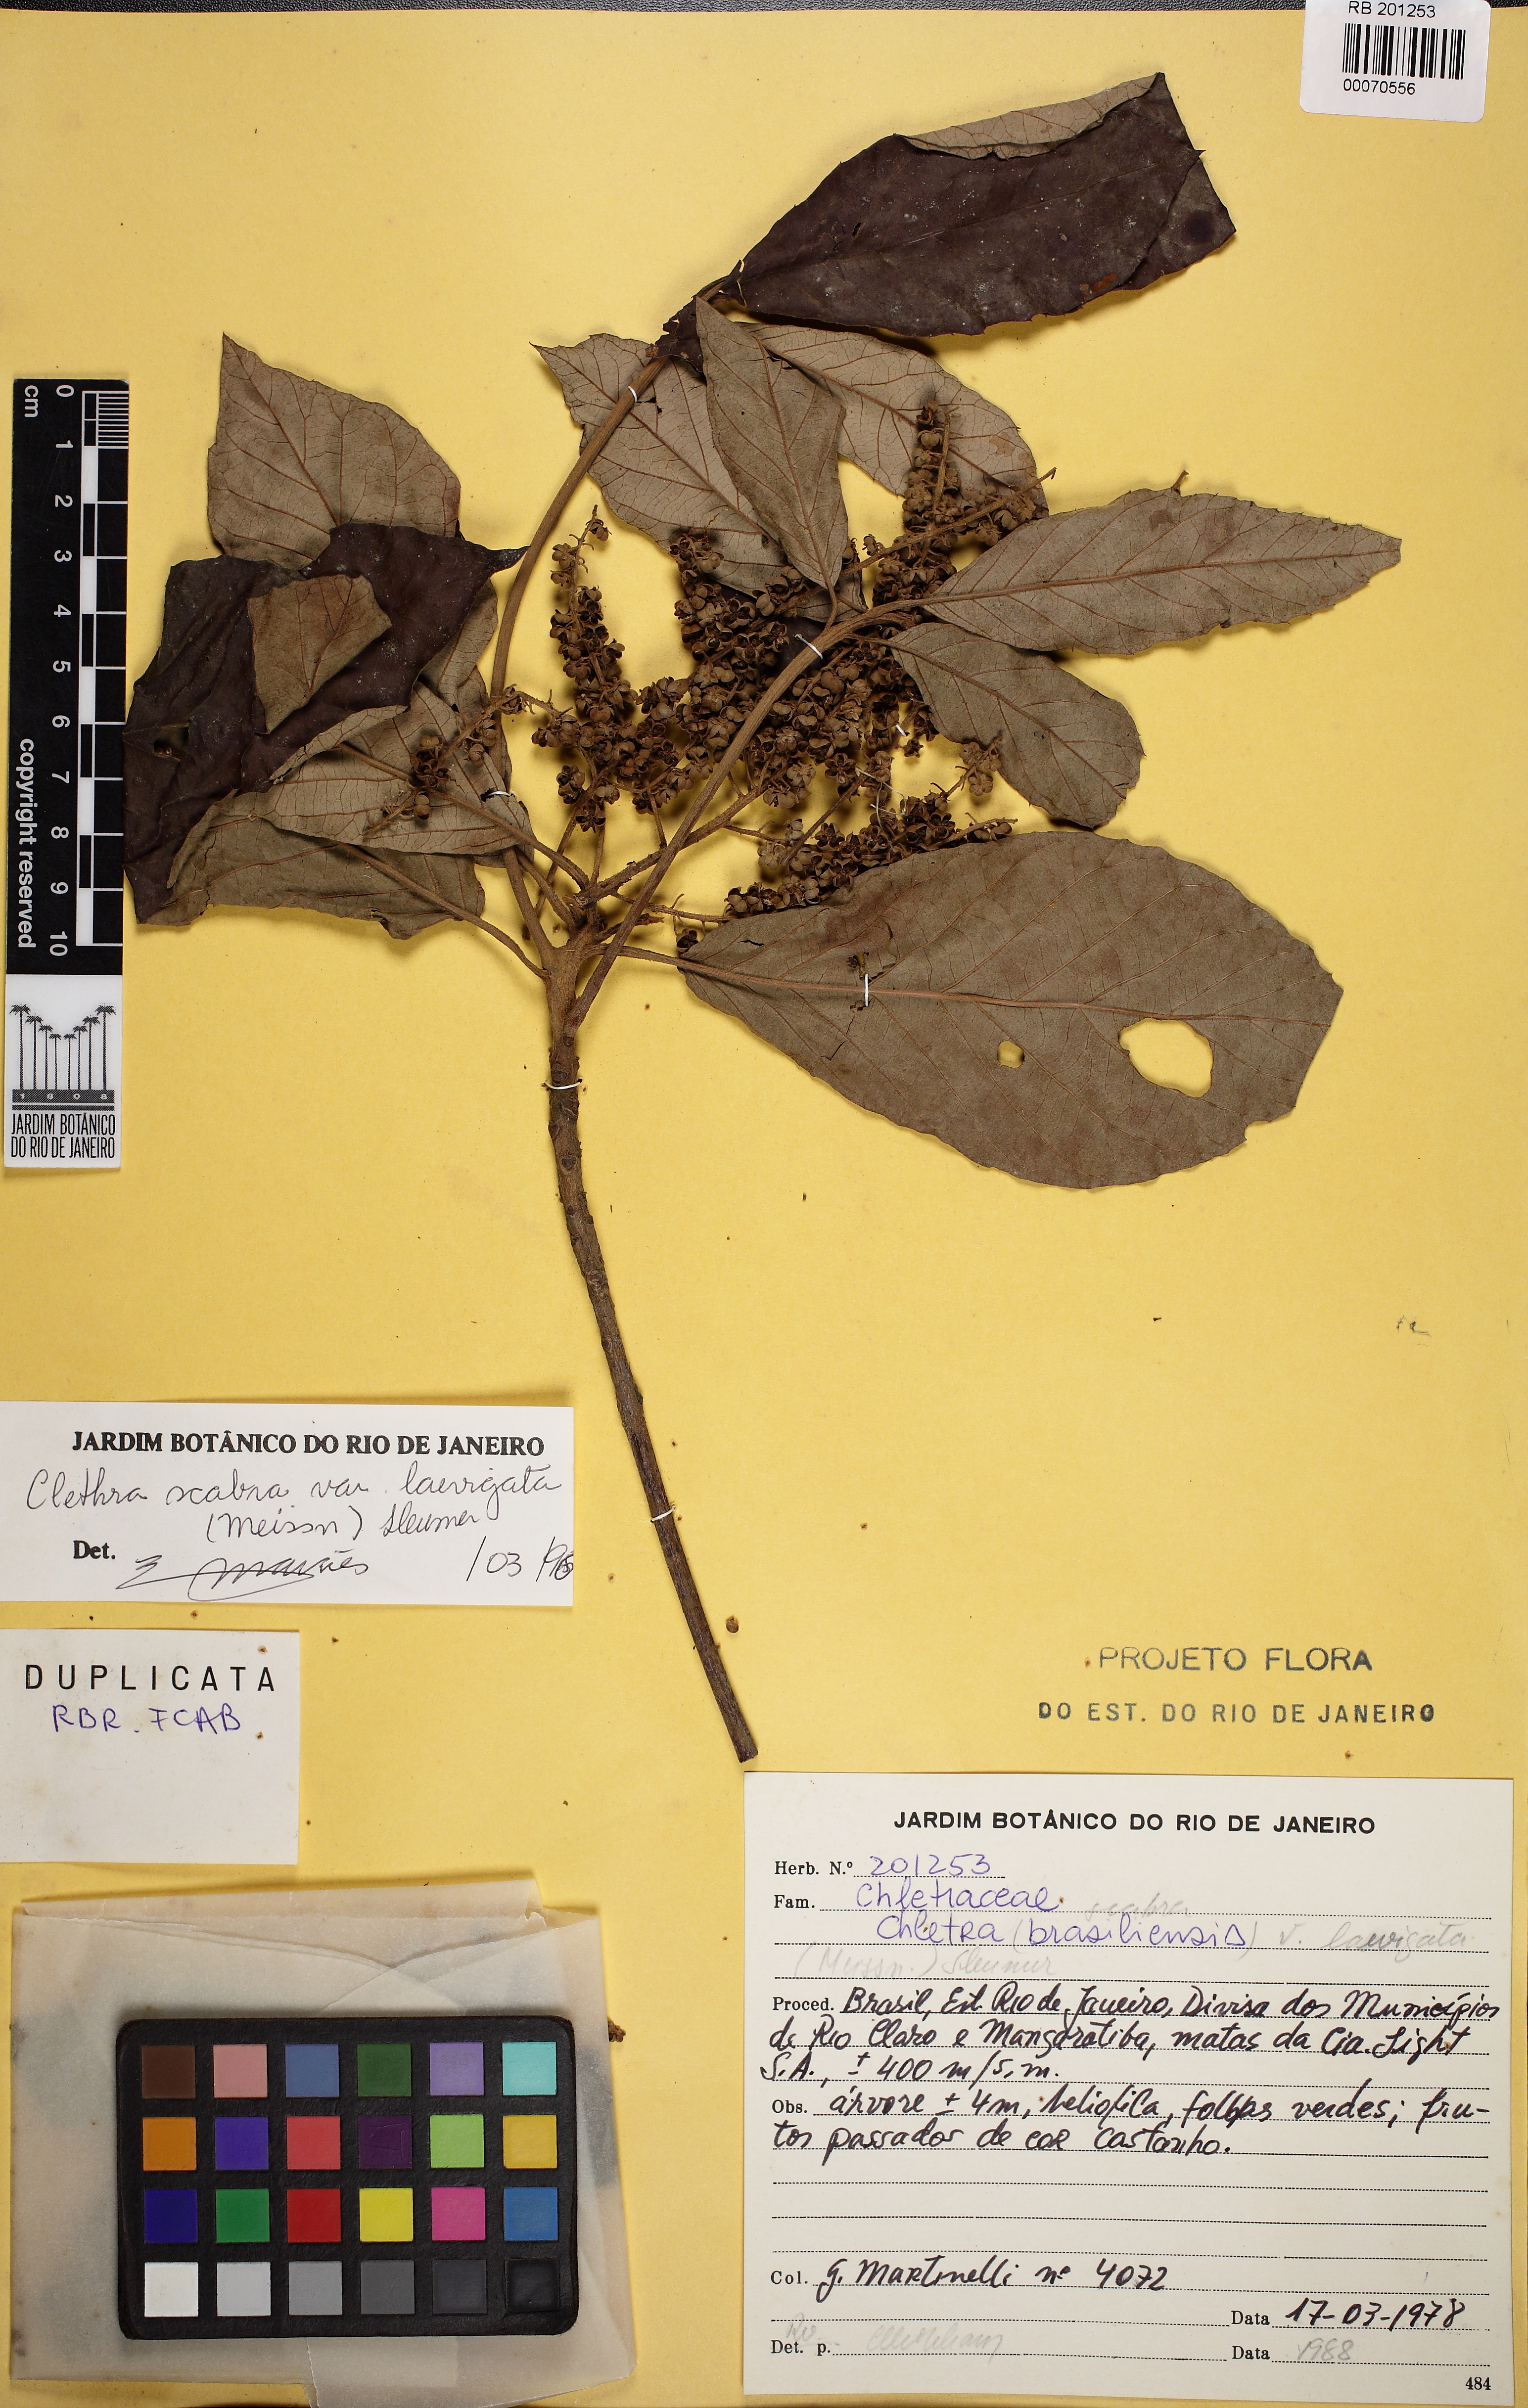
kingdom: Plantae
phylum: Tracheophyta
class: Magnoliopsida
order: Ericales
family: Clethraceae
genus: Clethra
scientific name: Clethra scabra
